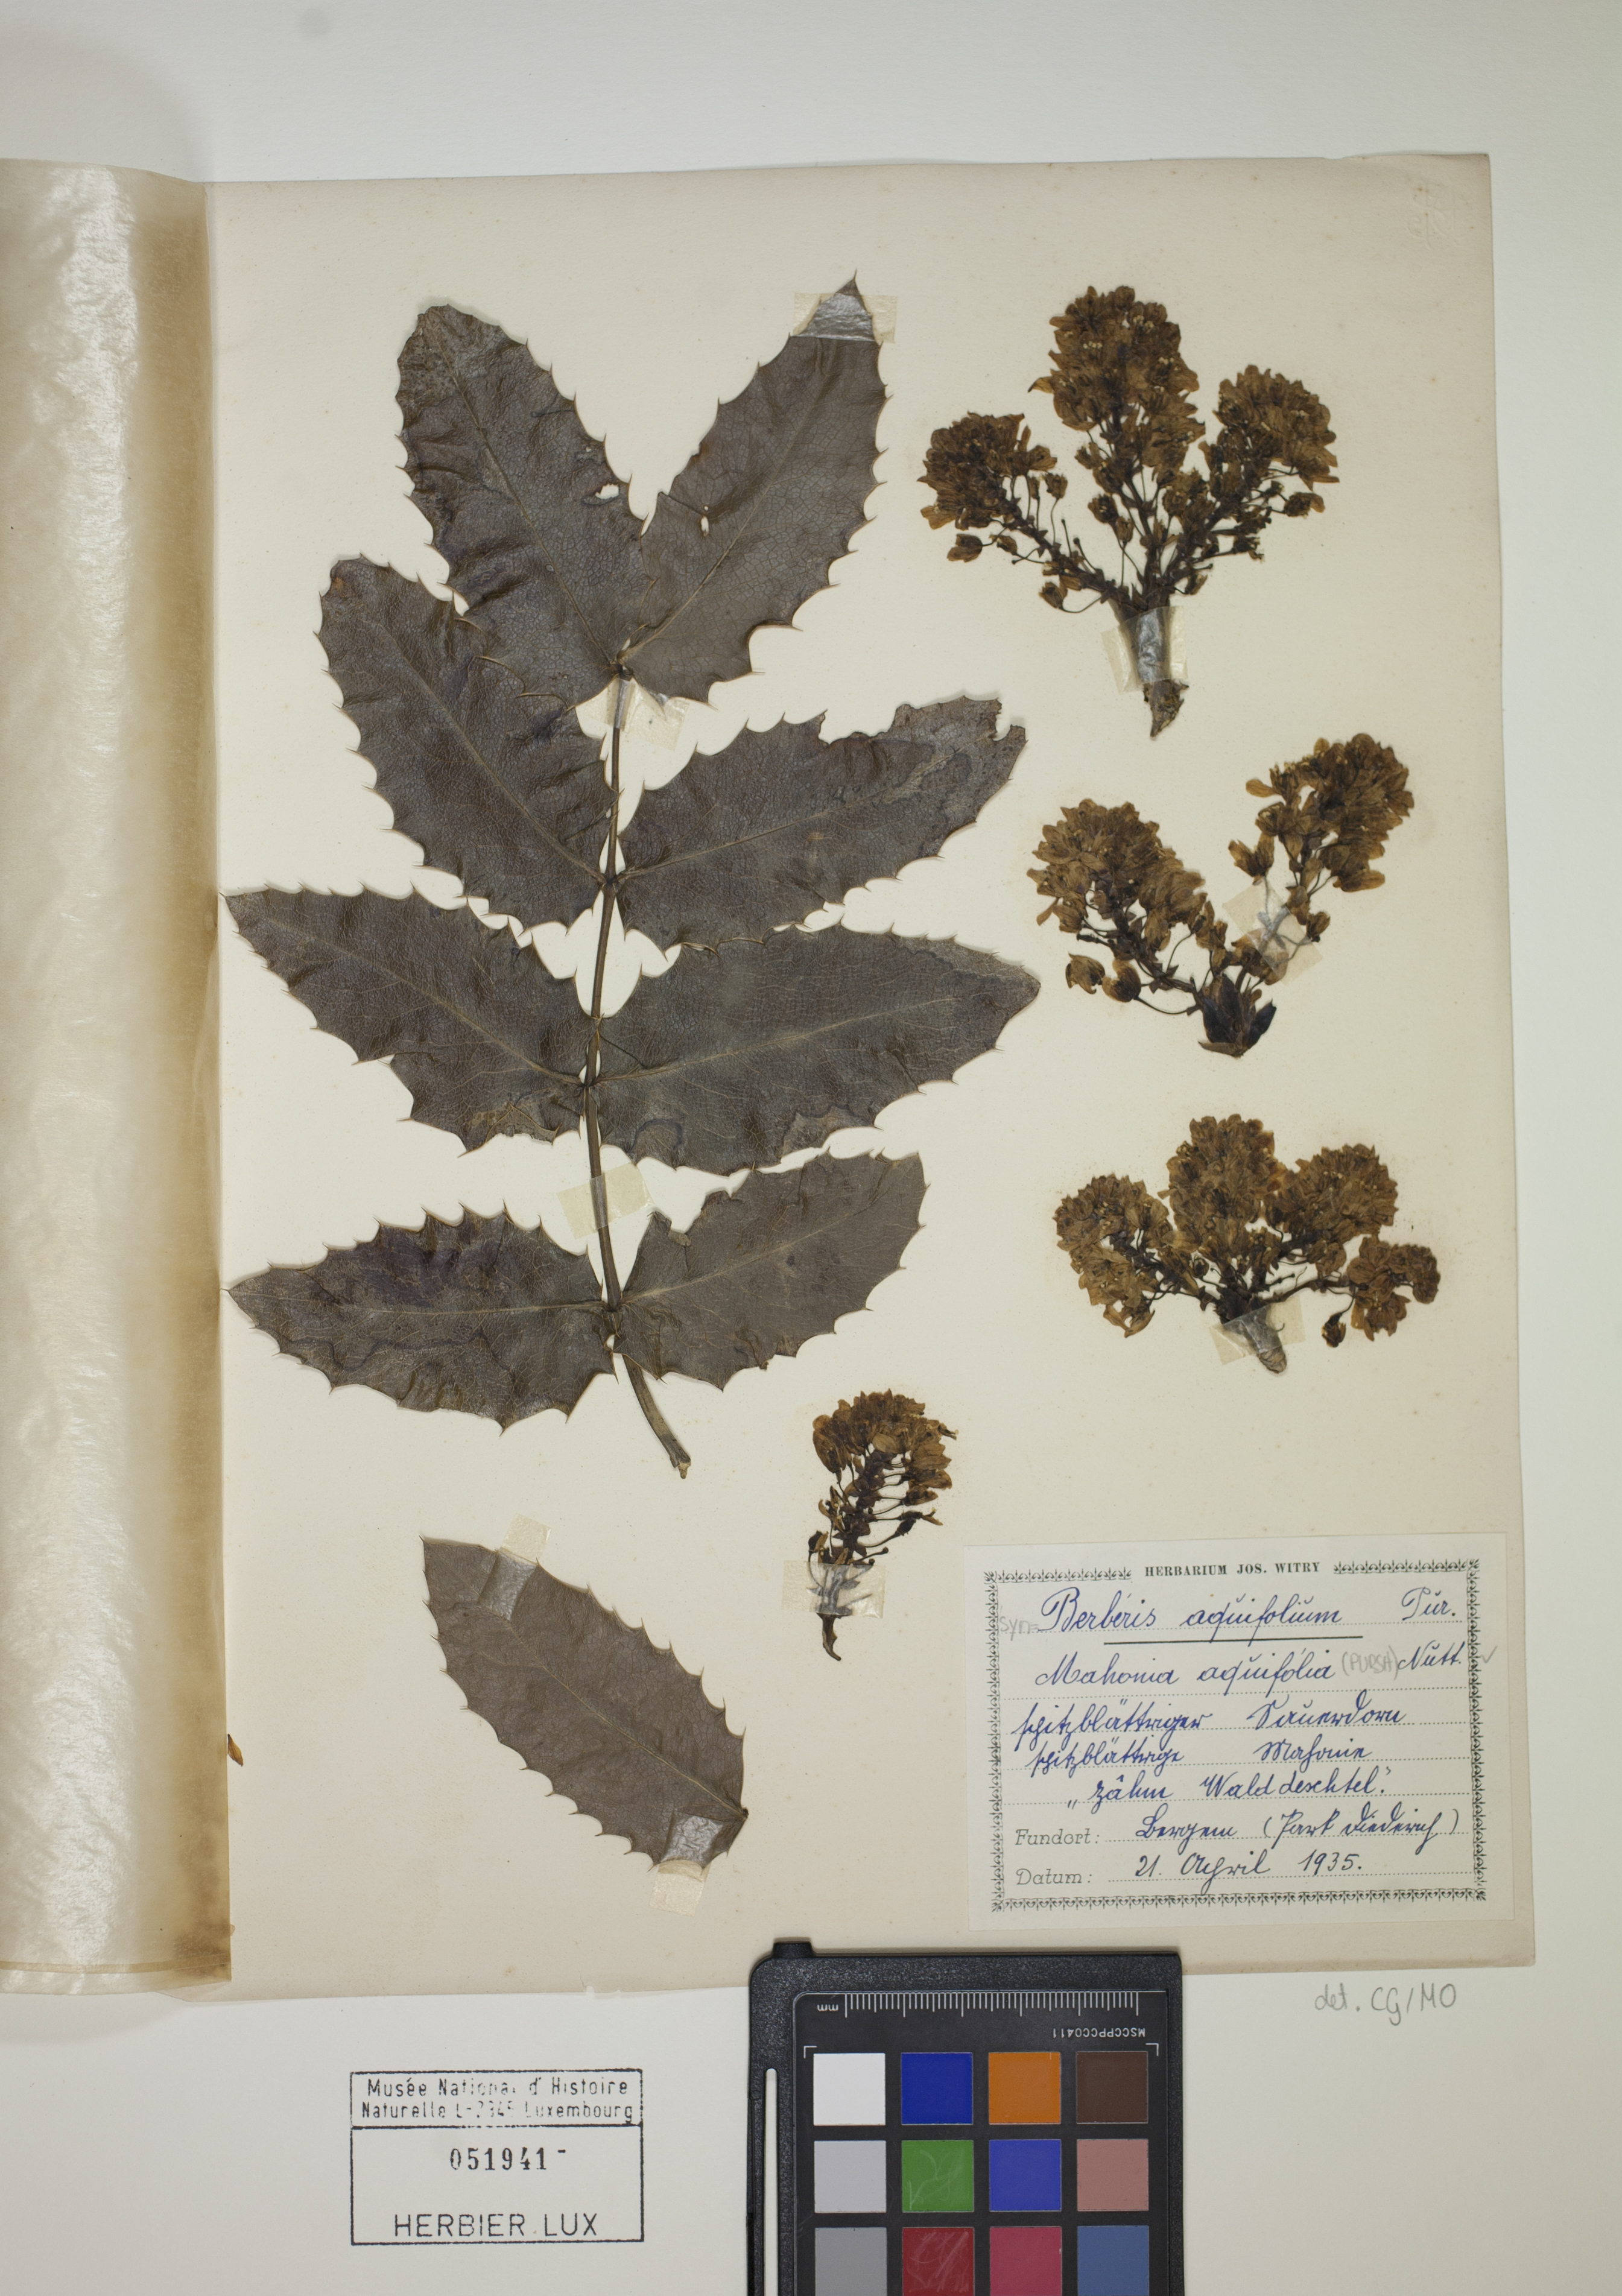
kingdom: Plantae
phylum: Tracheophyta
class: Magnoliopsida
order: Ranunculales
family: Berberidaceae
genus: Mahonia
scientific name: Mahonia aquifolium
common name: Oregon-grape
